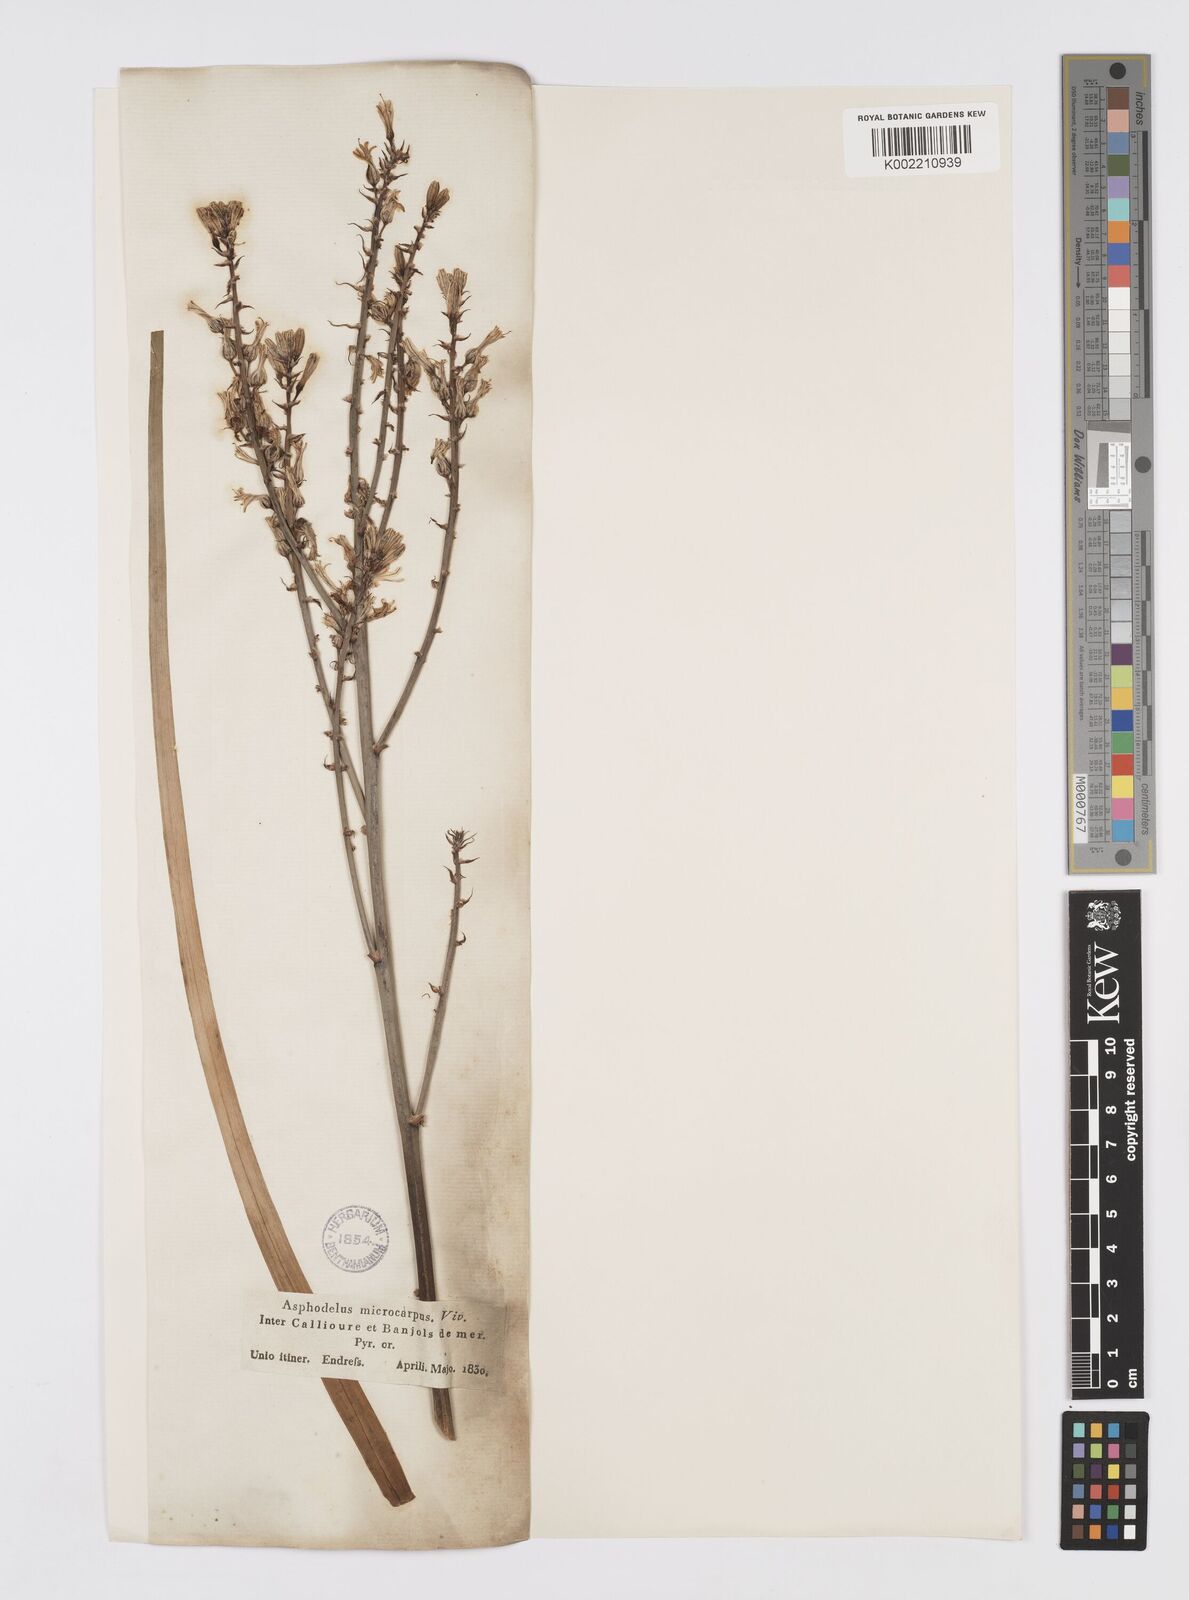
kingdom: Plantae
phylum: Tracheophyta
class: Liliopsida
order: Asparagales
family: Asphodelaceae
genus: Asphodelus
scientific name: Asphodelus ramosus
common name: Silverrod
